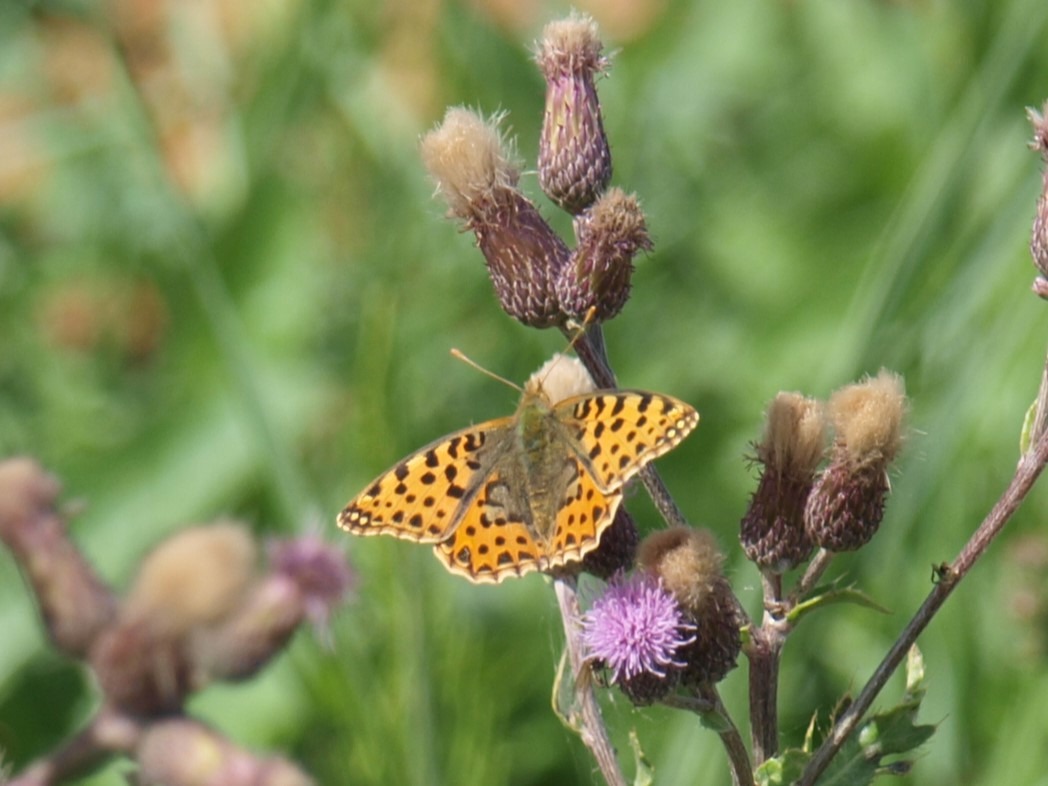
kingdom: Animalia
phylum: Arthropoda
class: Insecta
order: Lepidoptera
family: Nymphalidae
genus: Issoria
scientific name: Issoria lathonia
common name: Storplettet perlemorsommerfugl
